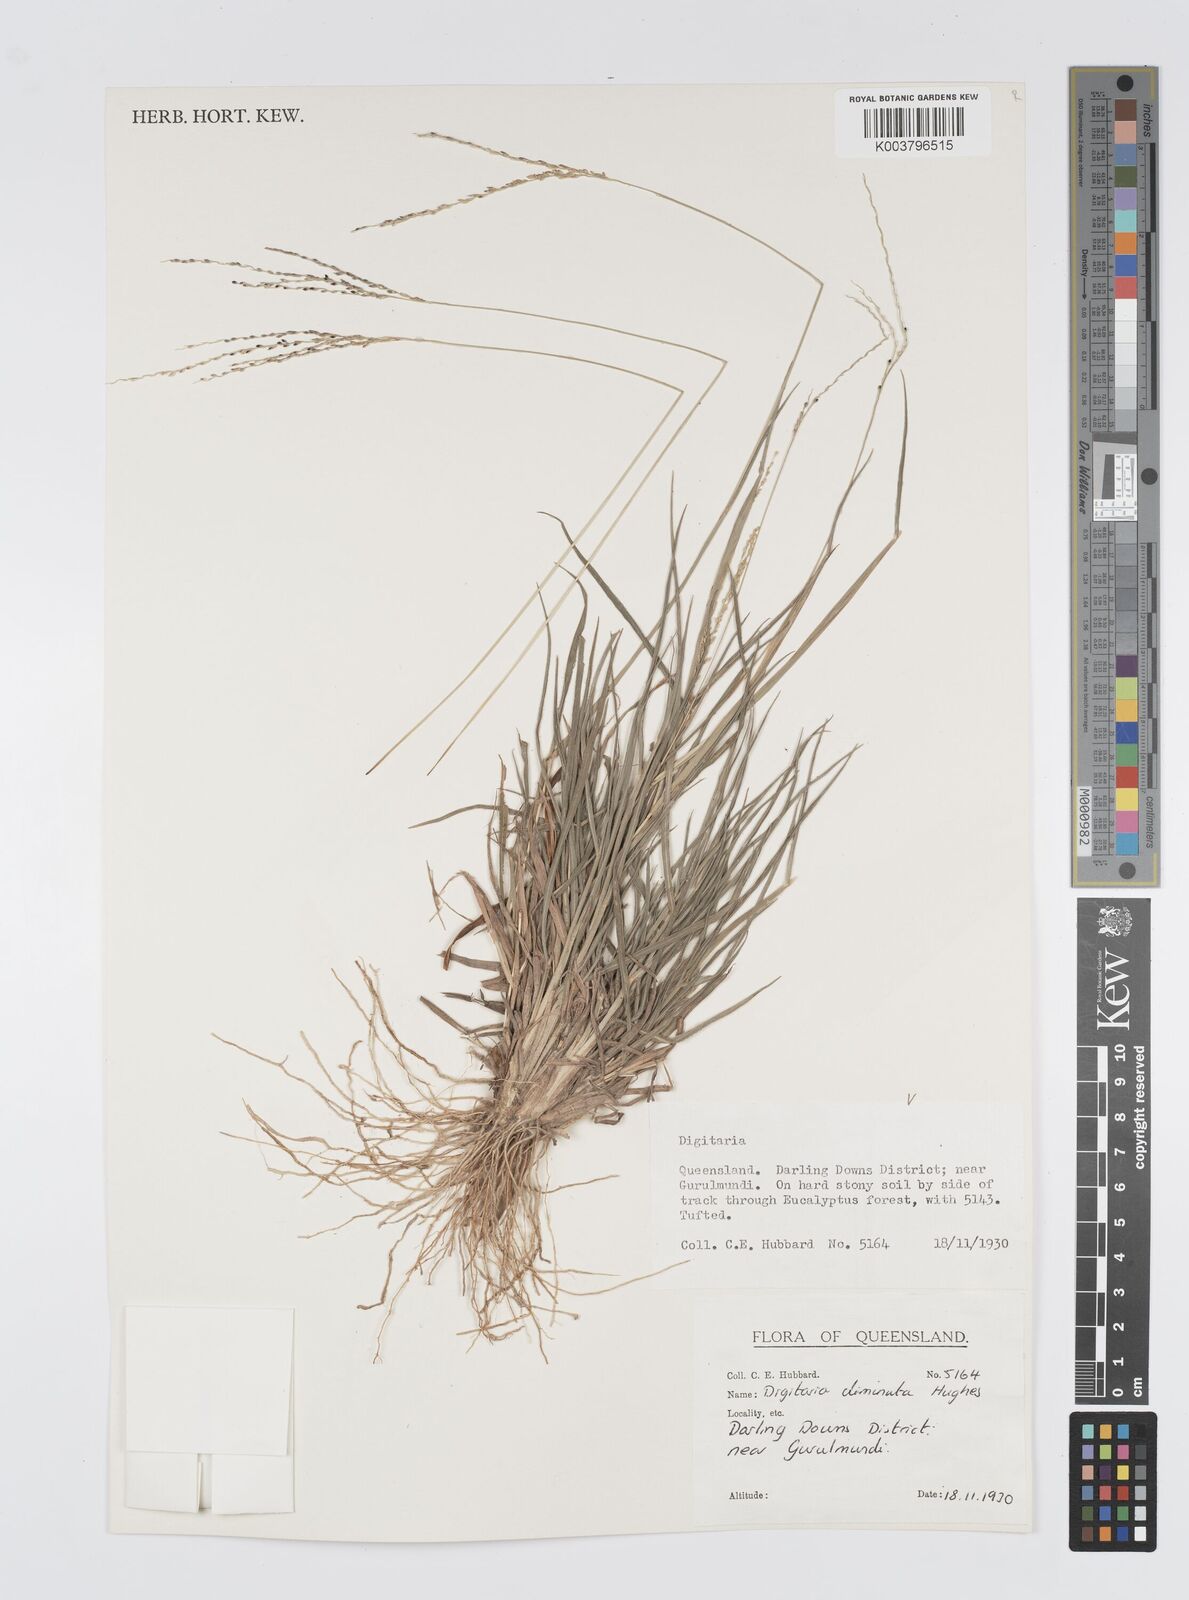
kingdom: Plantae
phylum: Tracheophyta
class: Liliopsida
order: Poales
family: Poaceae
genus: Digitaria
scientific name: Digitaria breviglumis
